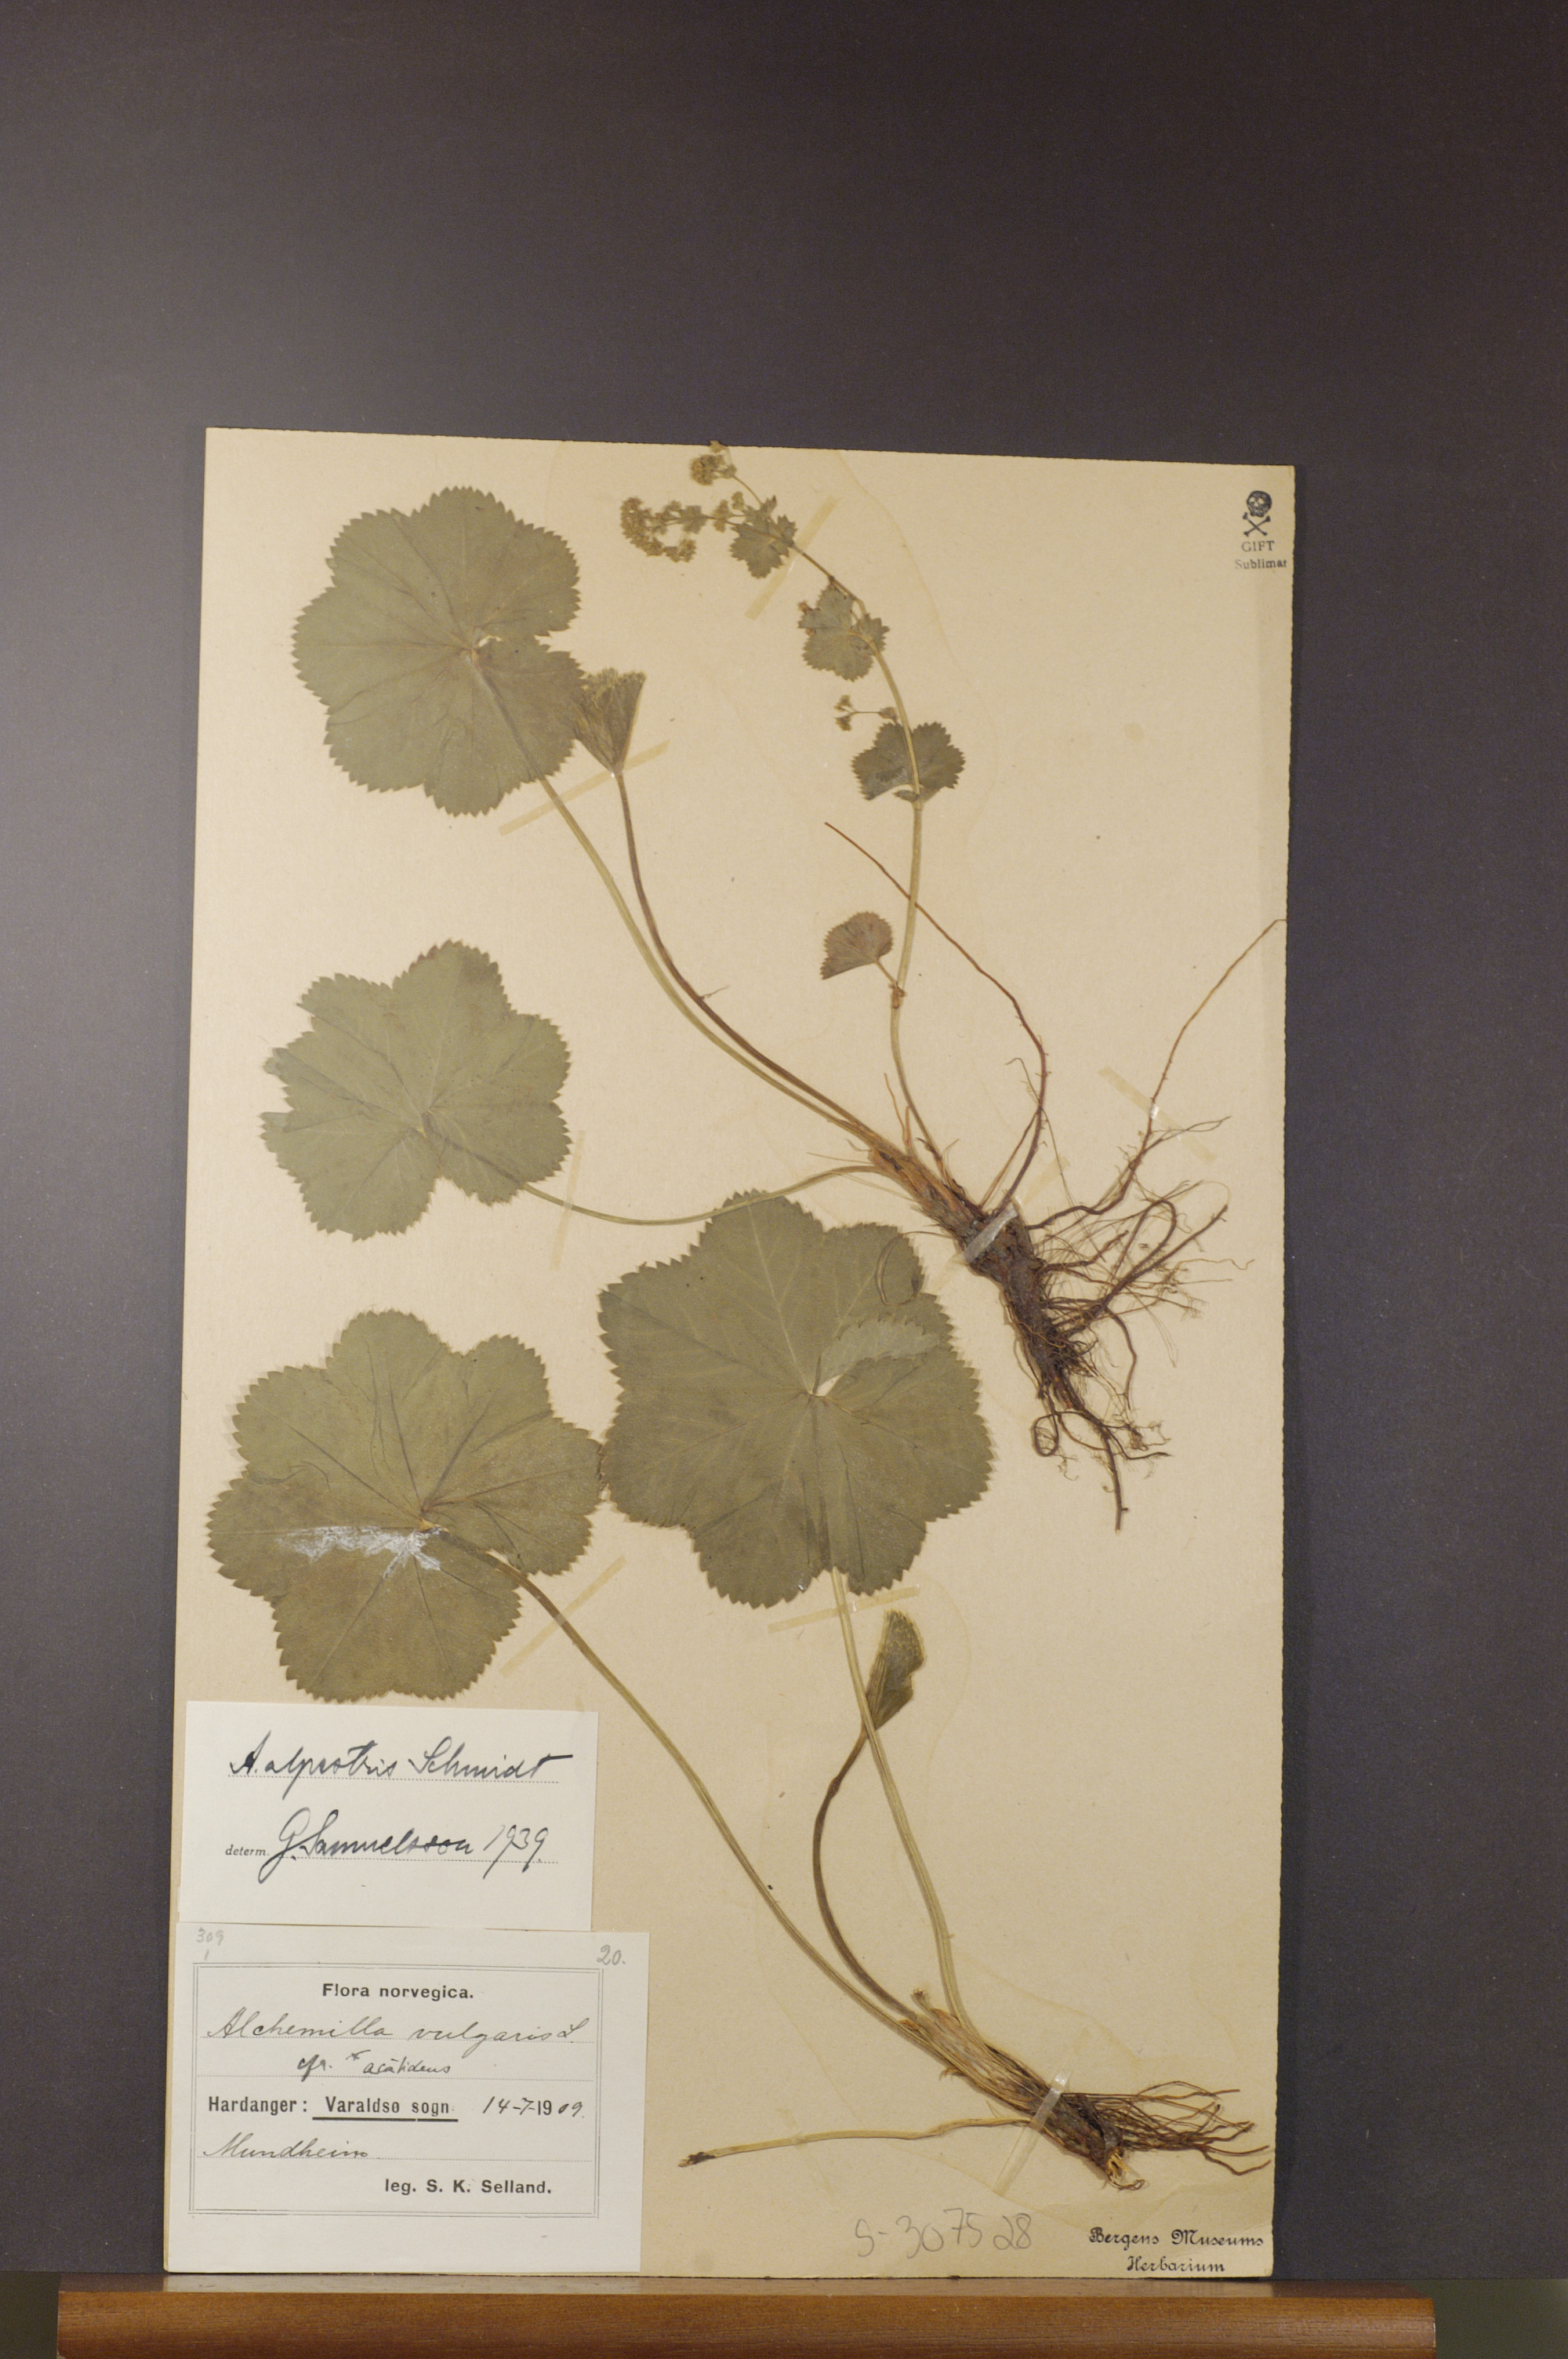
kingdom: Plantae
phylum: Tracheophyta
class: Magnoliopsida
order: Rosales
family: Rosaceae
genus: Alchemilla
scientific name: Alchemilla glabra
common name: Smooth lady's-mantle
